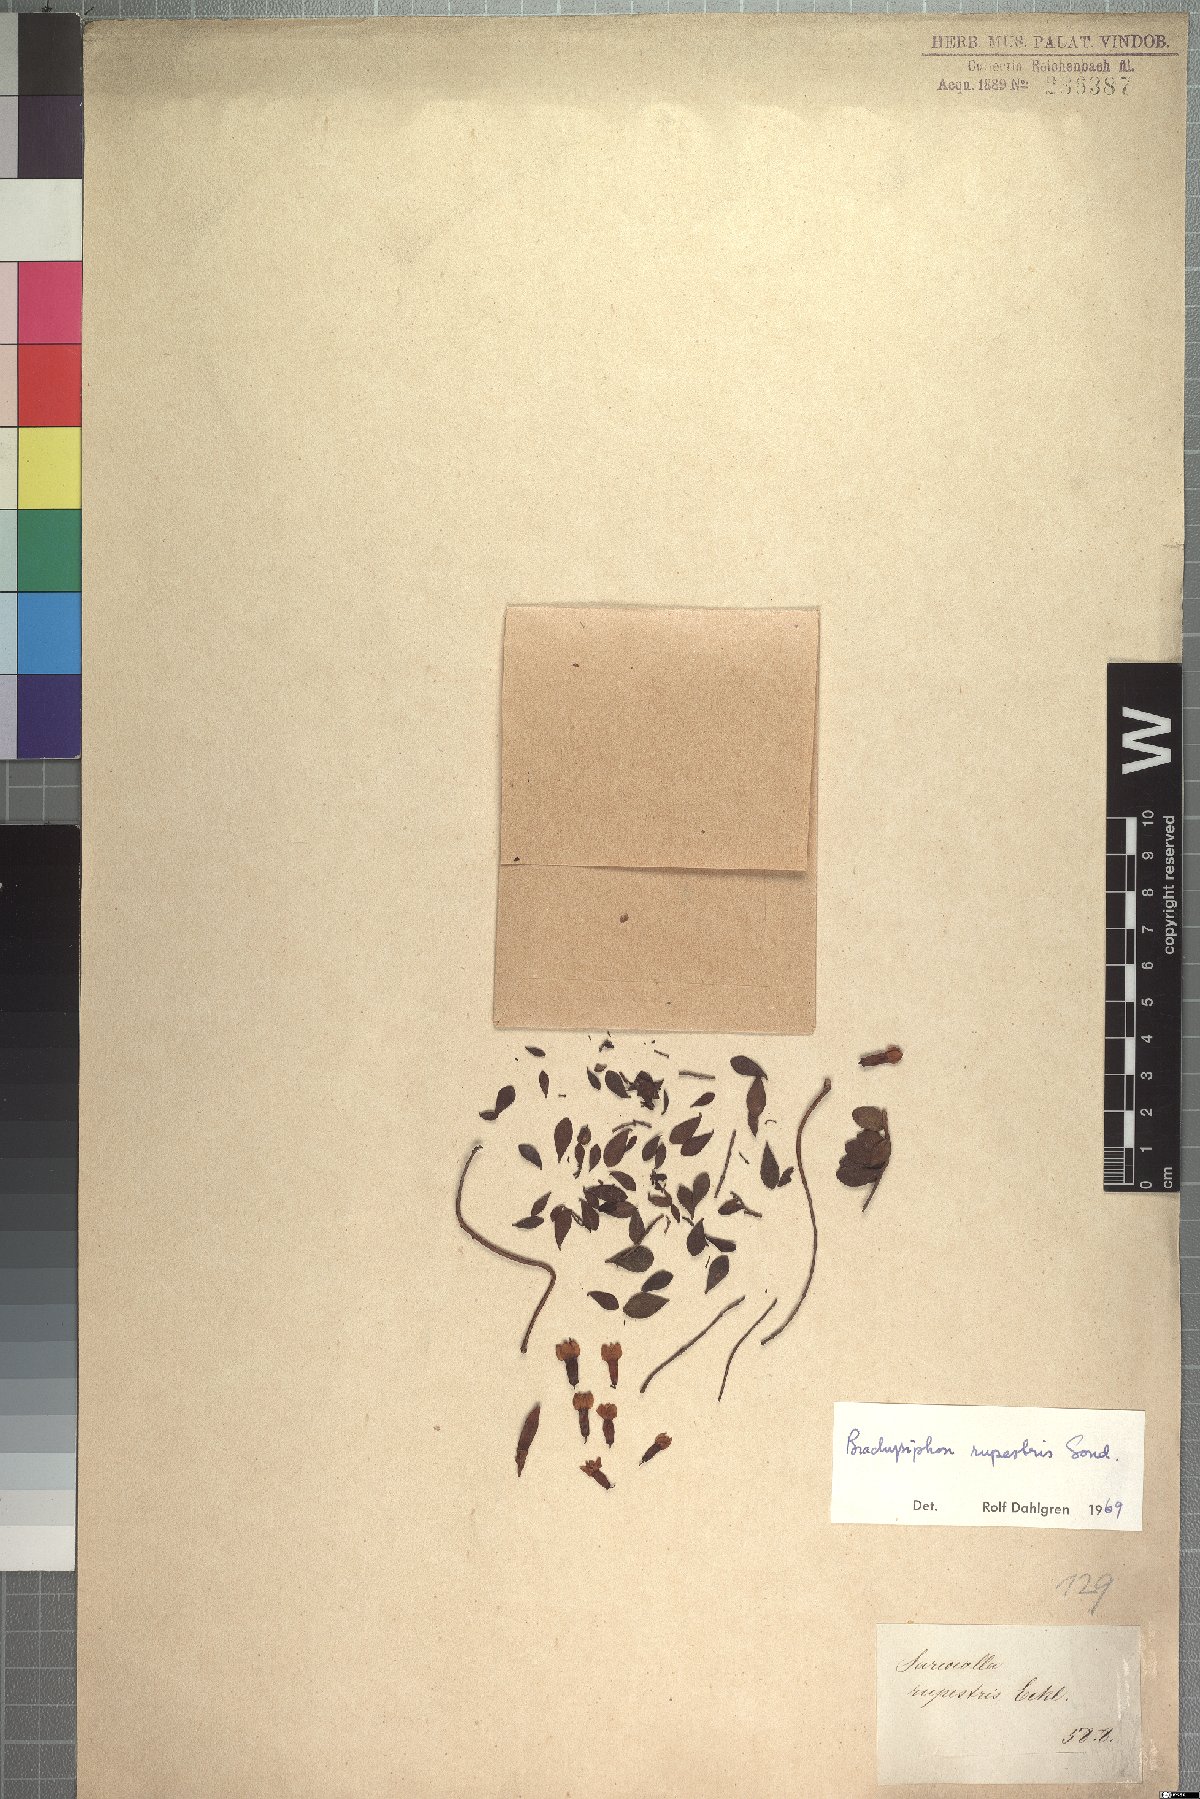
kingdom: Plantae
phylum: Tracheophyta
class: Magnoliopsida
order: Myrtales
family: Penaeaceae
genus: Brachysiphon
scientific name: Brachysiphon rupestris
